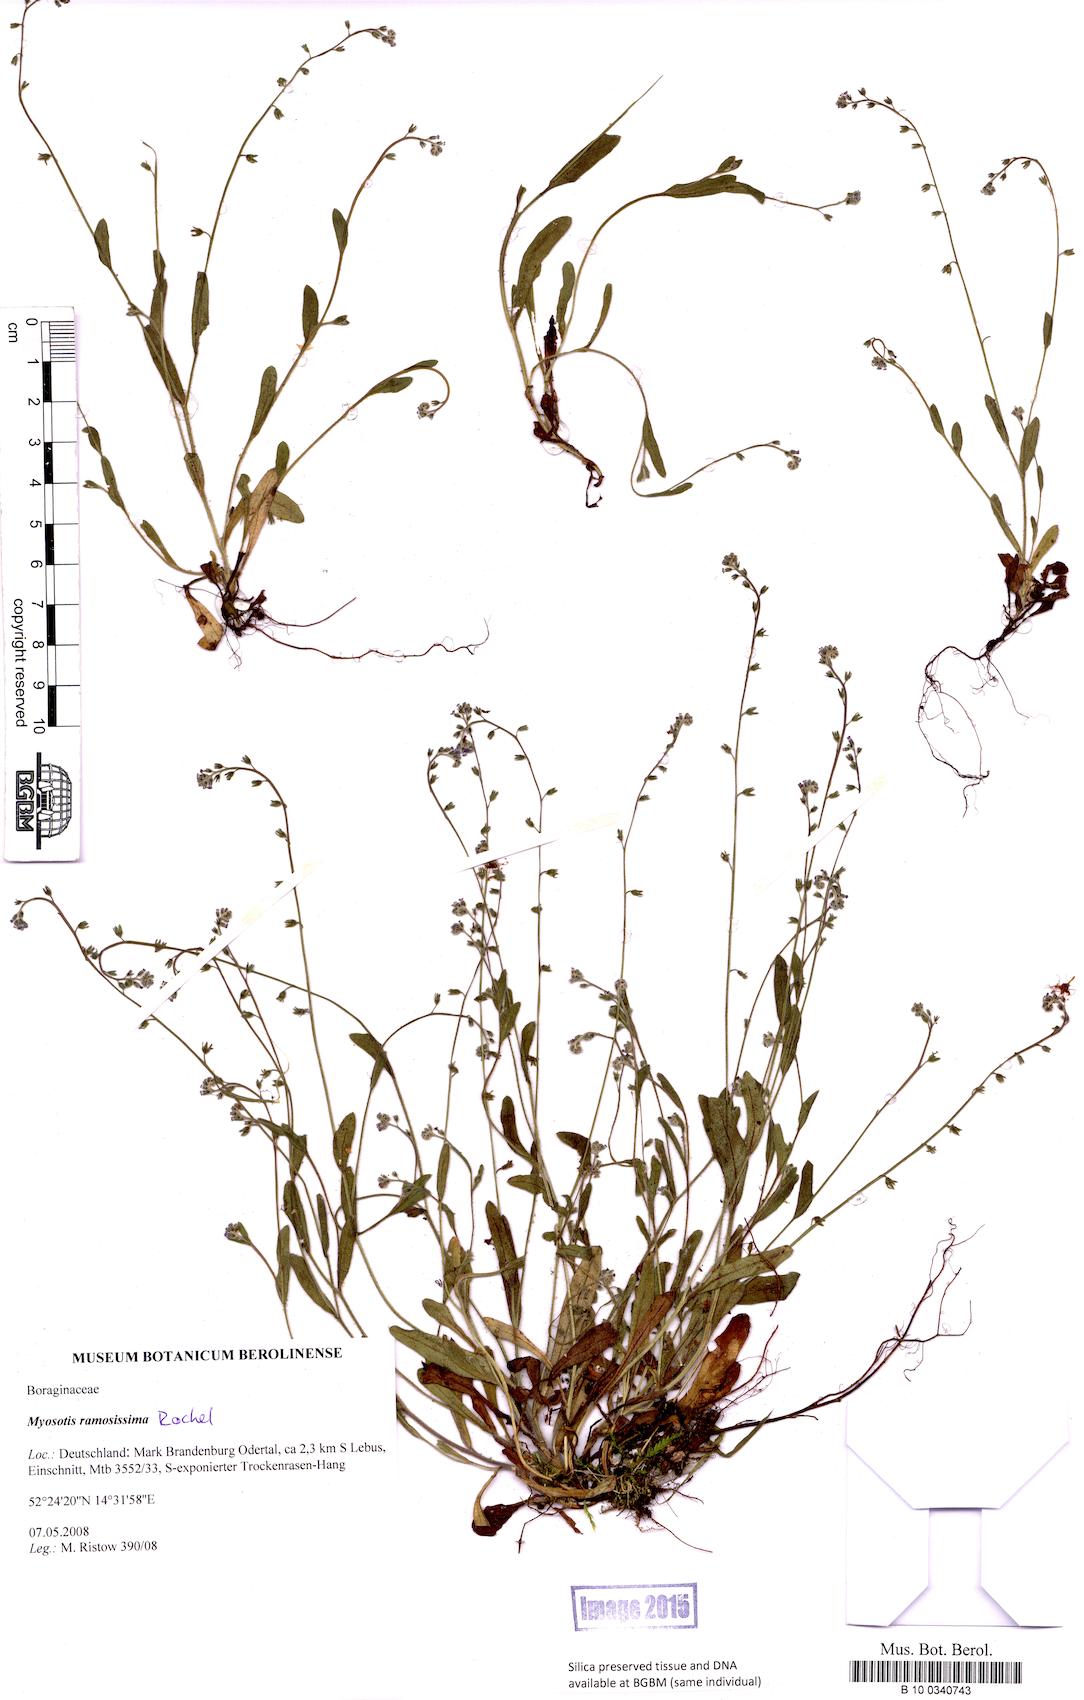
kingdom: Plantae
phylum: Tracheophyta
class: Magnoliopsida
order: Boraginales
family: Boraginaceae
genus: Myosotis
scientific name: Myosotis ramosissima
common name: Early forget-me-not
